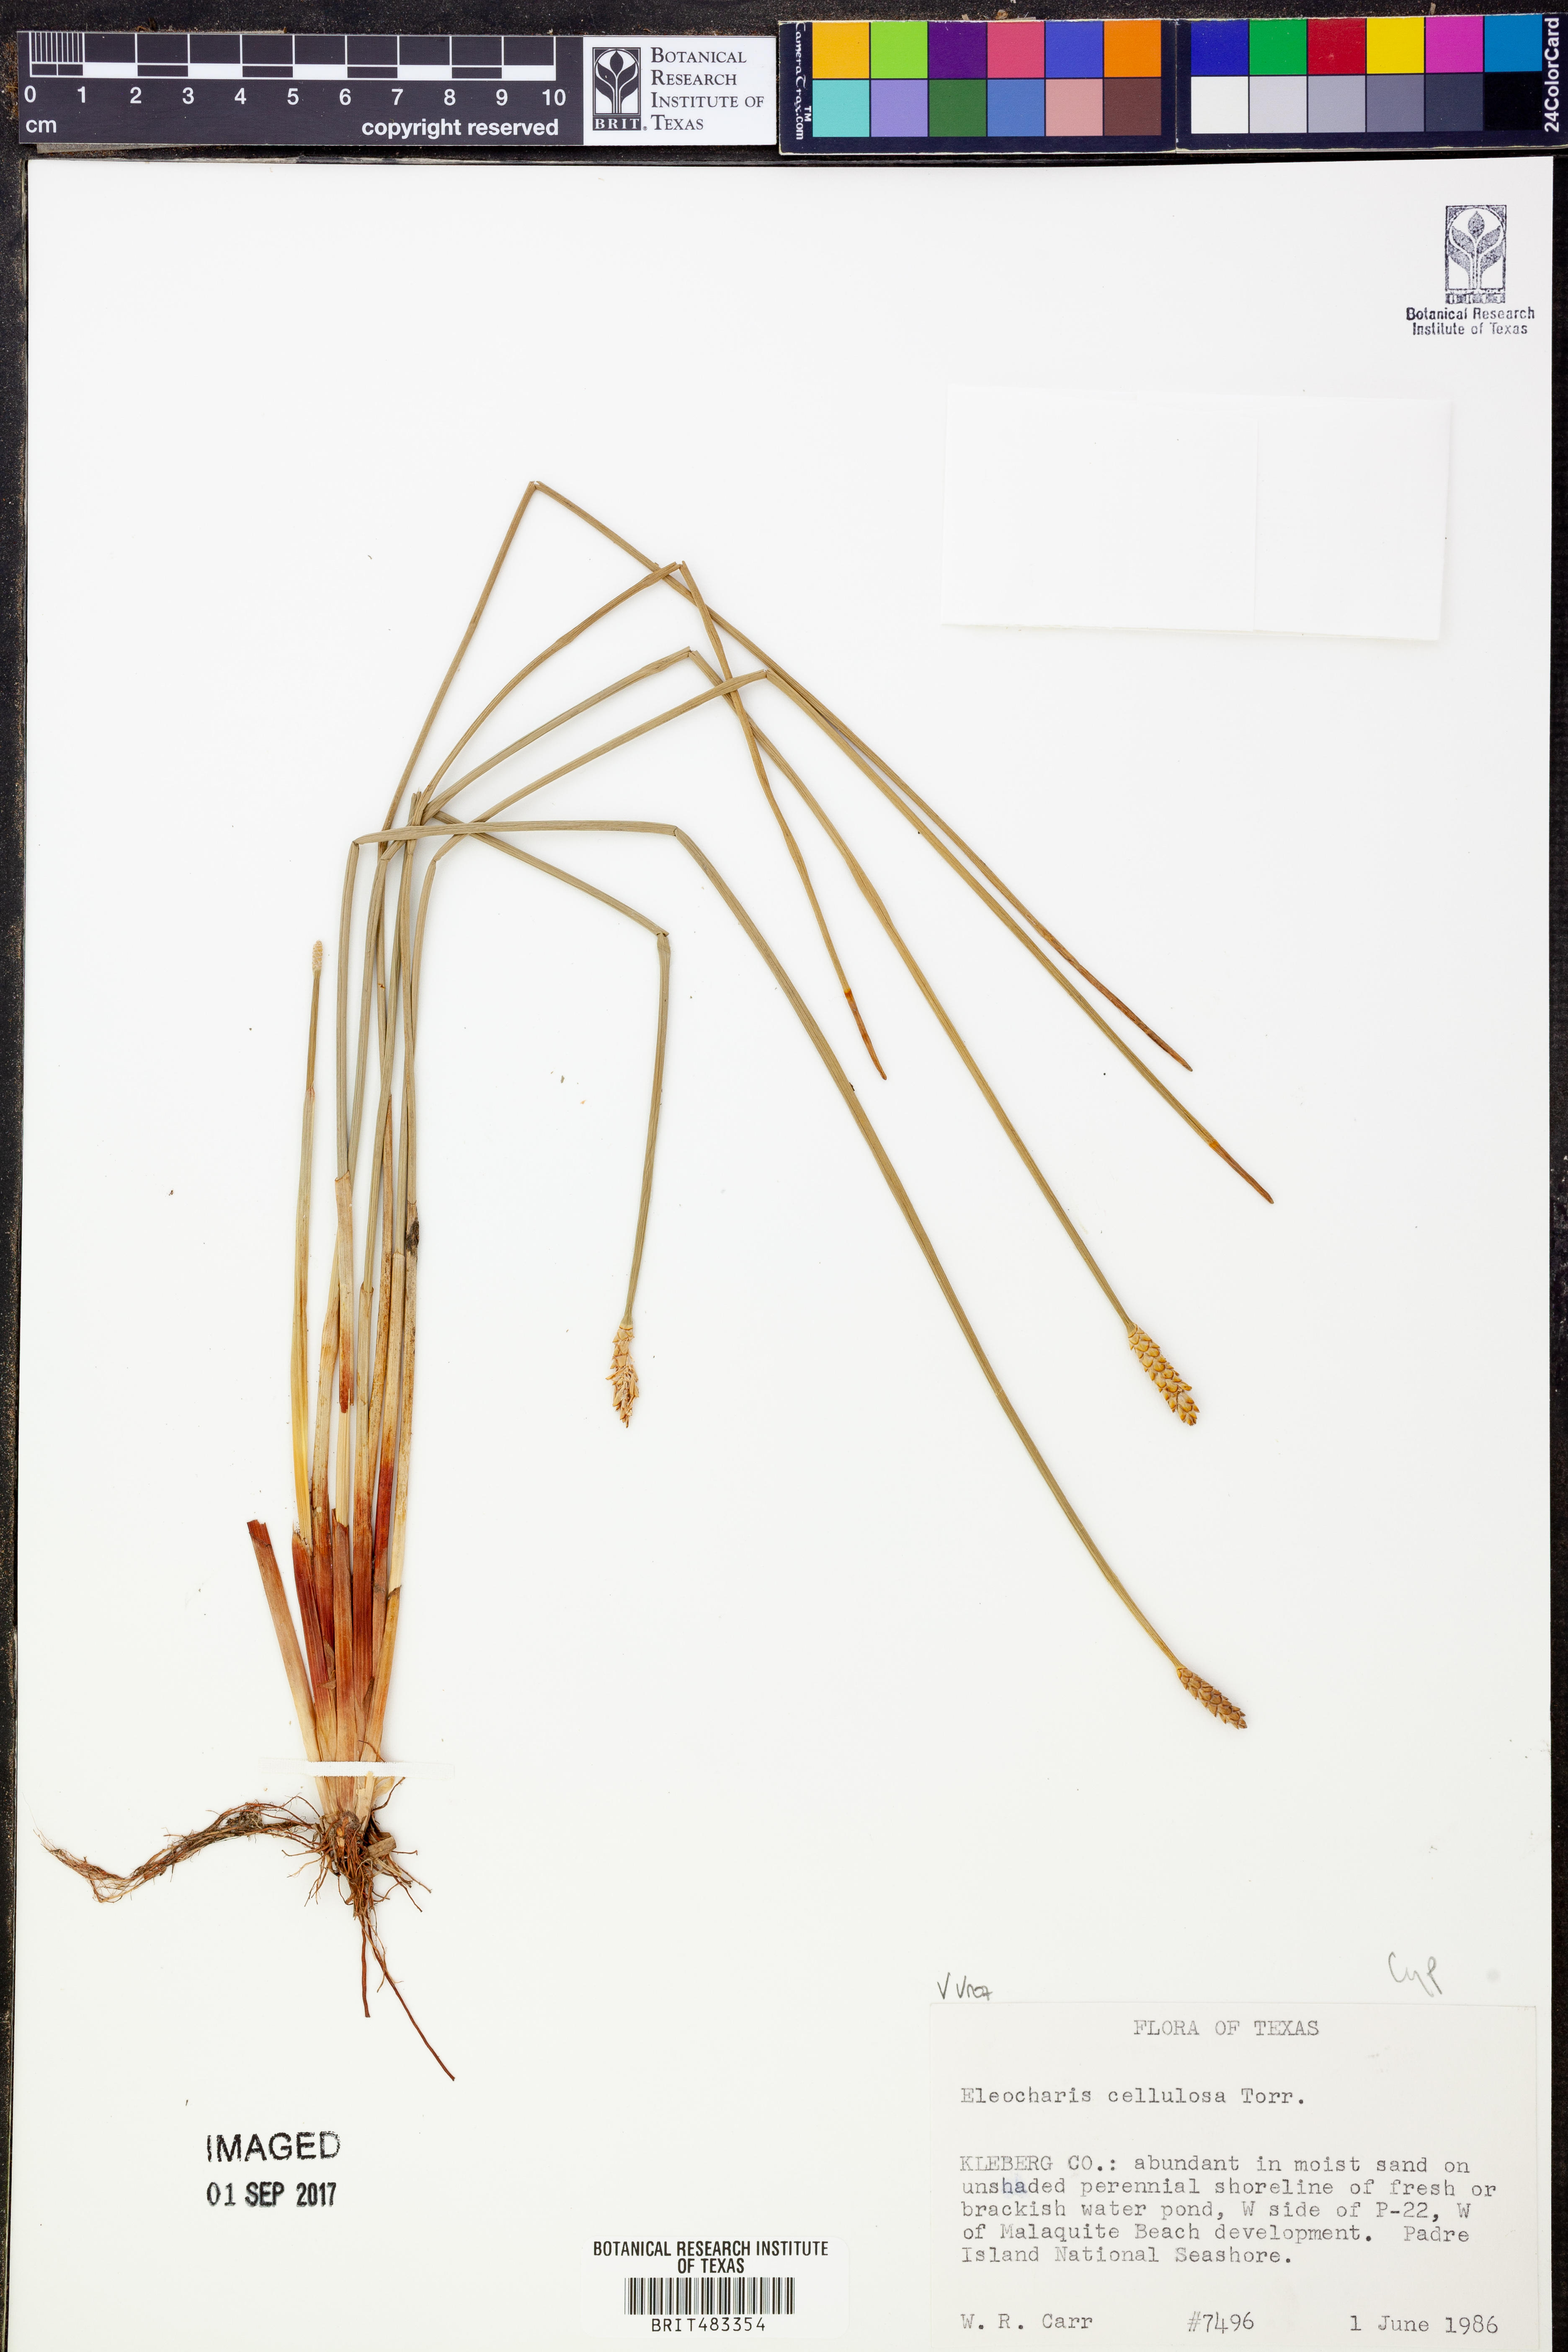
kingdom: Plantae
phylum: Tracheophyta
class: Liliopsida
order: Poales
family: Cyperaceae
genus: Eleocharis
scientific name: Eleocharis cellulosa
